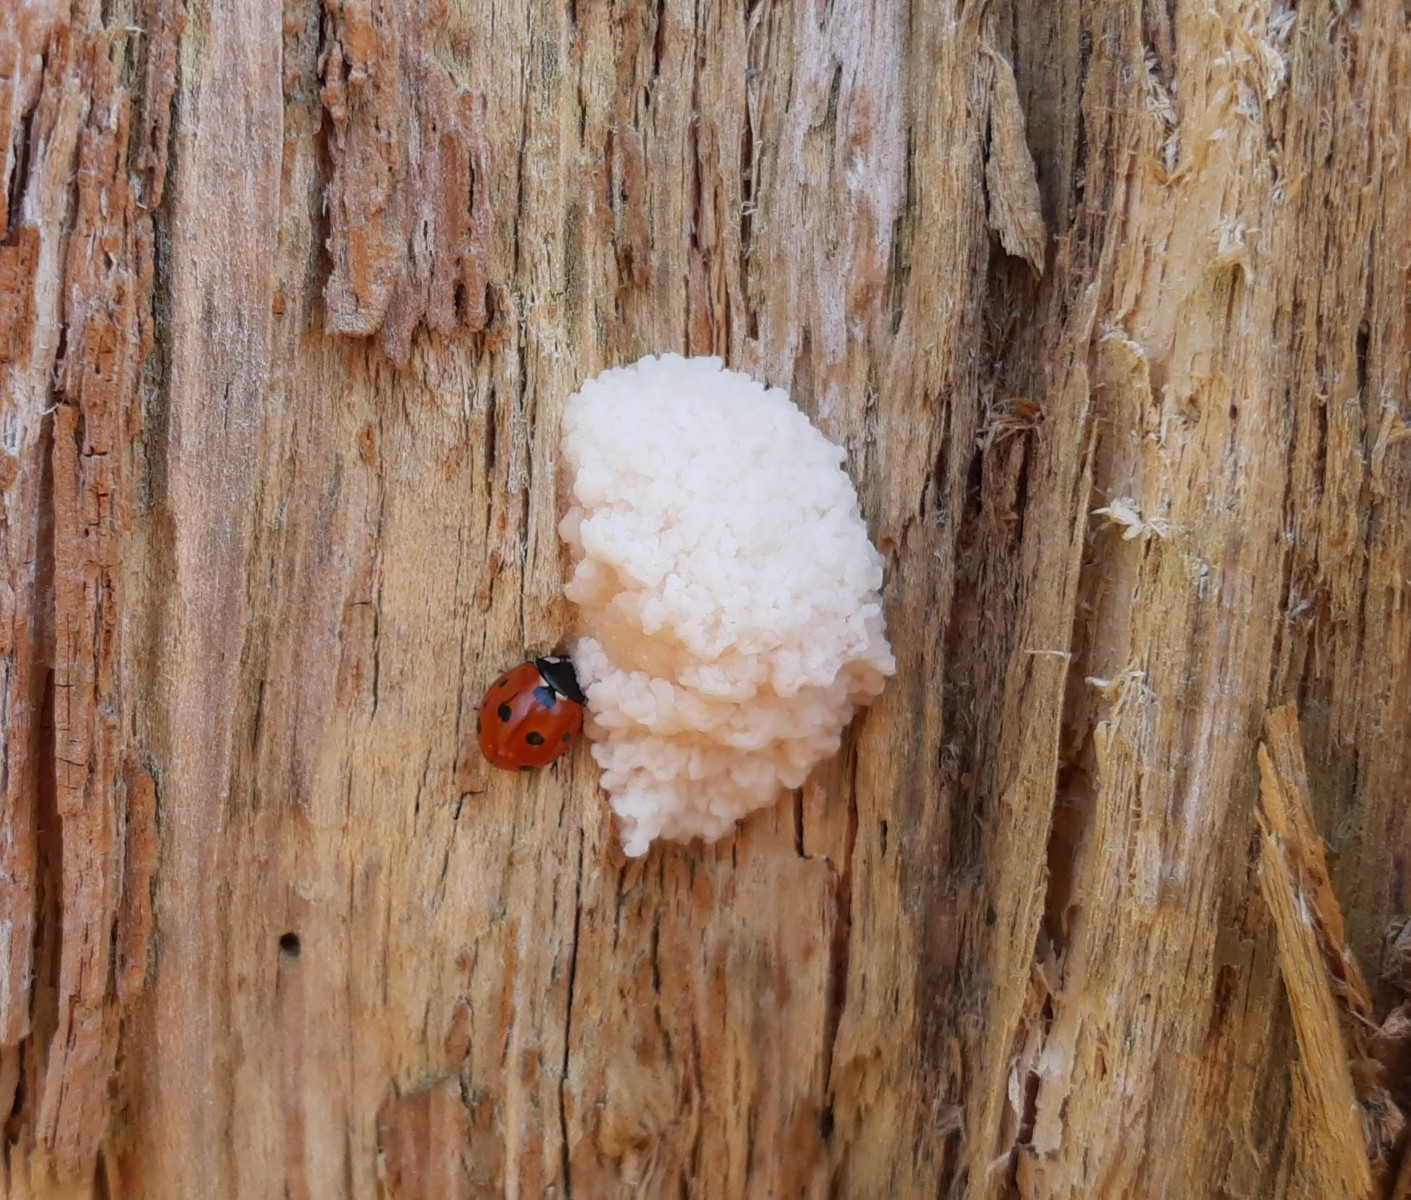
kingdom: Protozoa
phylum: Mycetozoa
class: Myxomycetes
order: Cribrariales
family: Tubiferaceae
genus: Reticularia
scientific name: Reticularia lycoperdon
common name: skinnende støvpude
